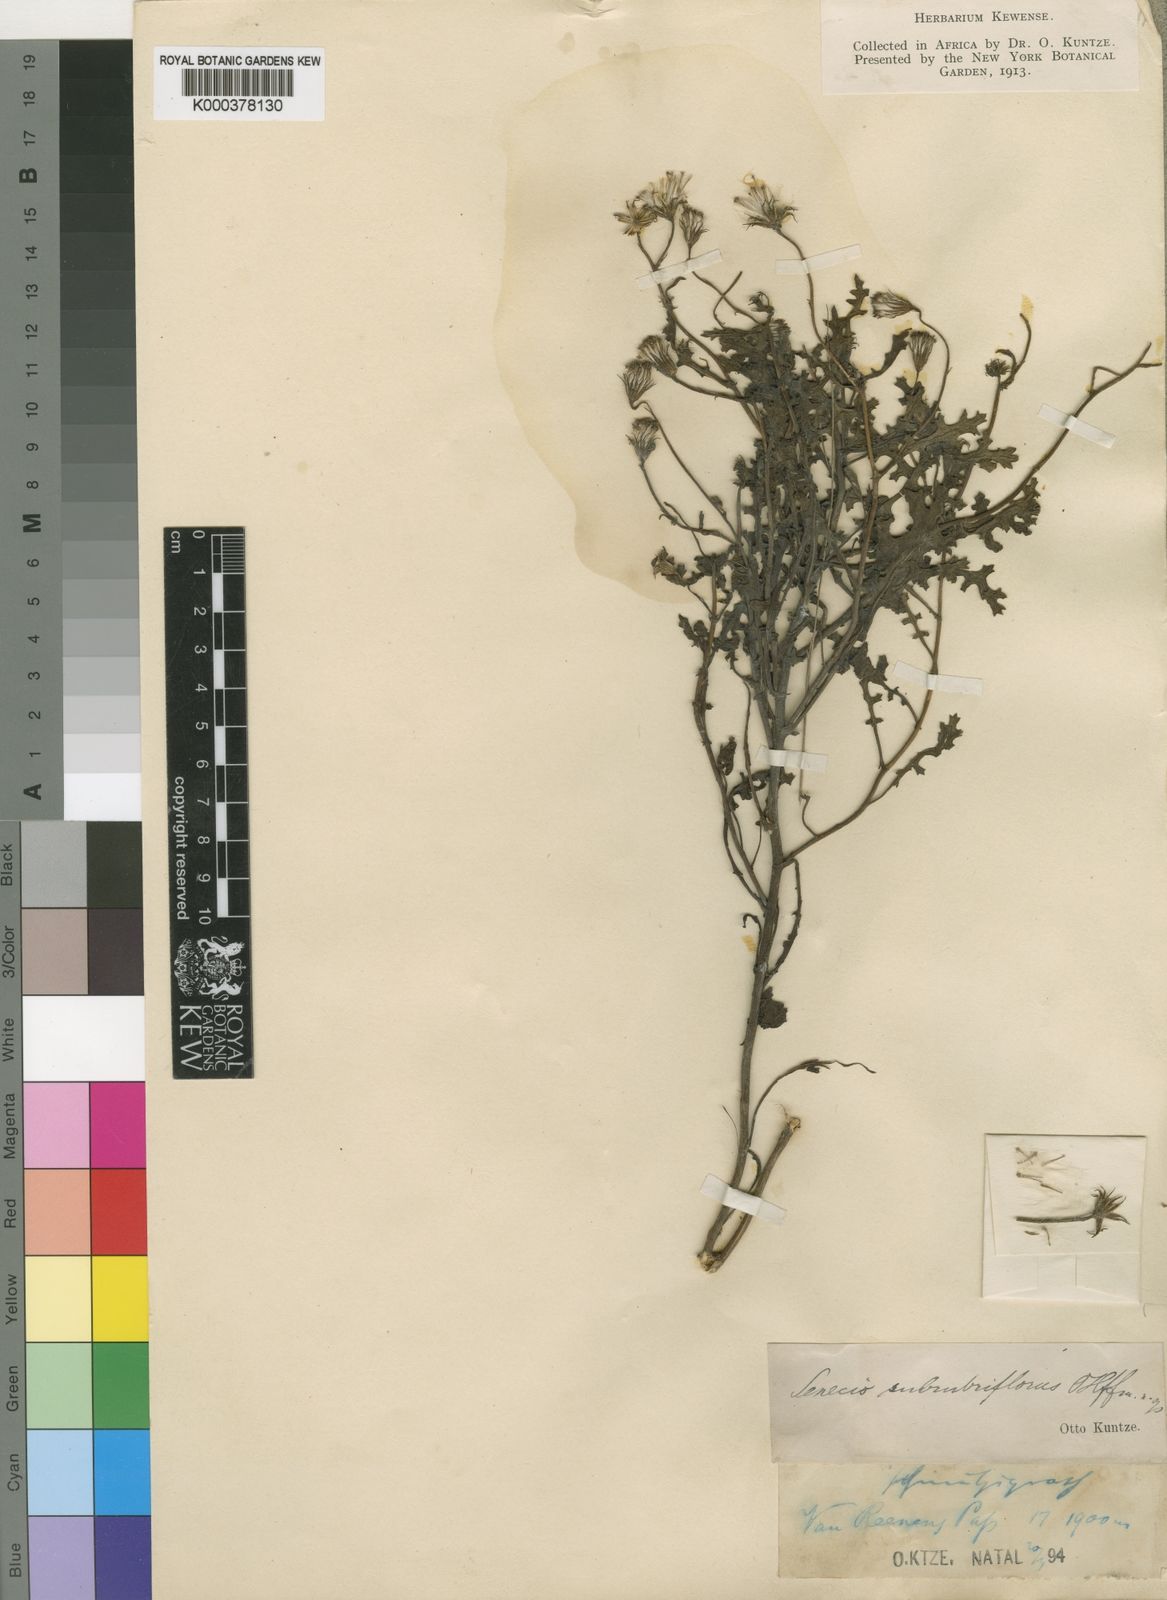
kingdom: Plantae
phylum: Tracheophyta
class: Magnoliopsida
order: Asterales
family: Asteraceae
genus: Senecio
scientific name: Senecio subrubriflorus
